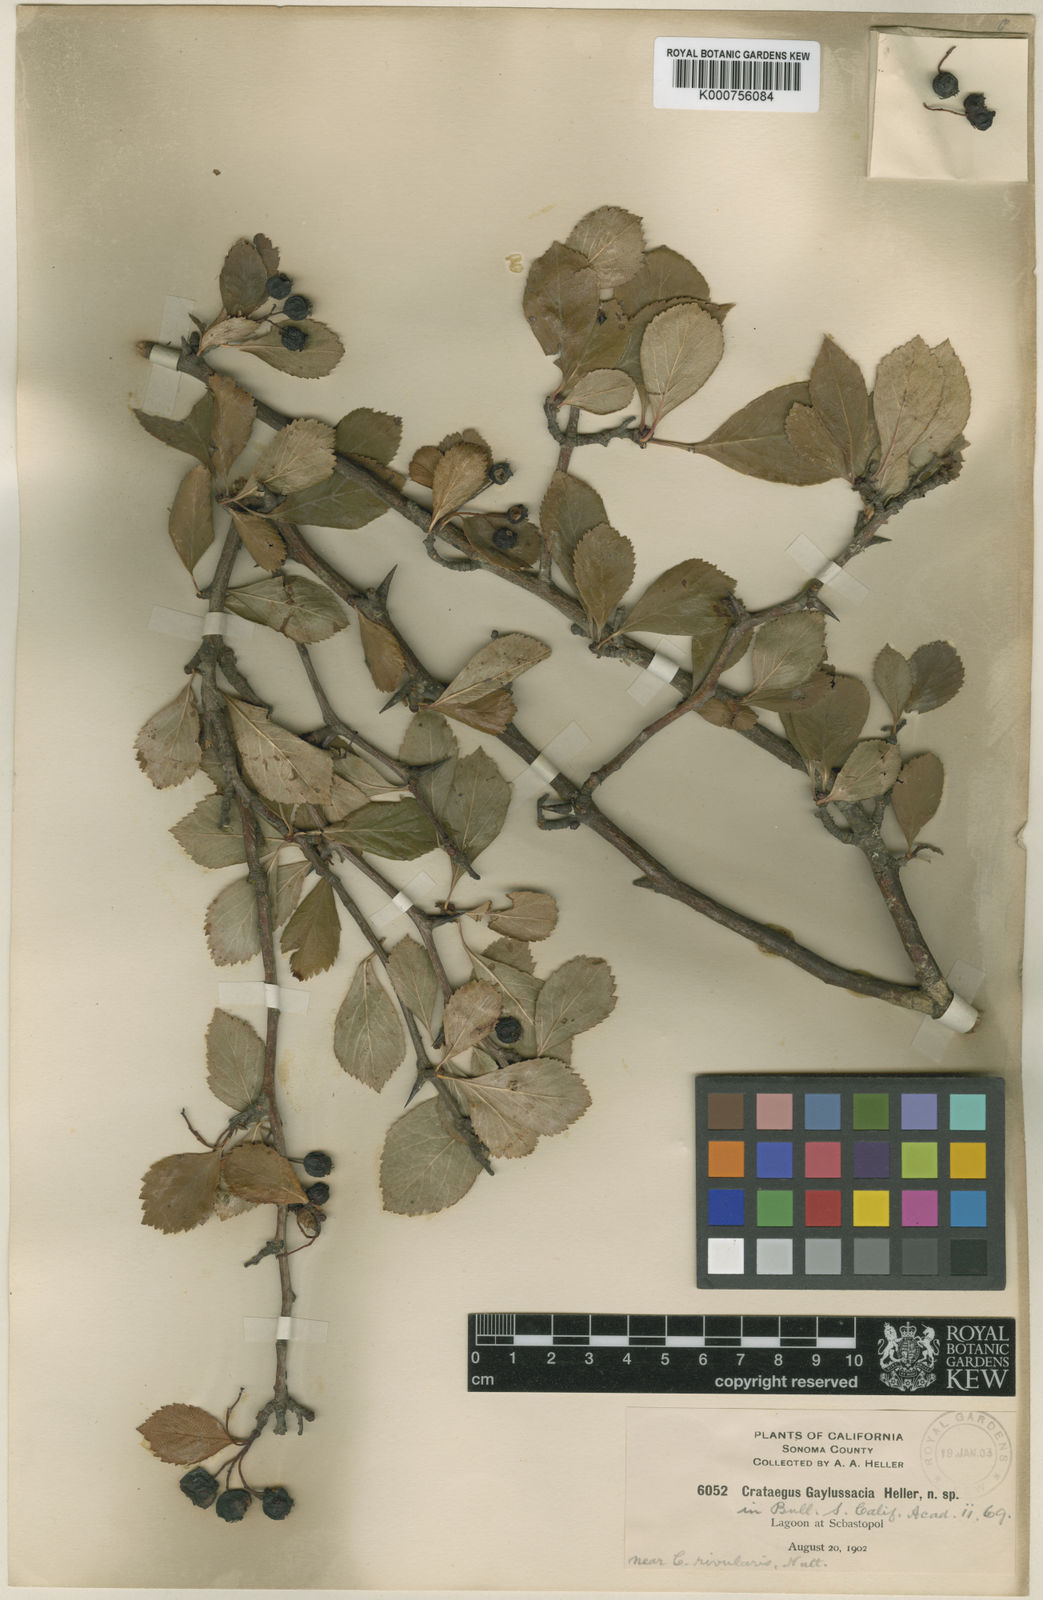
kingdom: Plantae
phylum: Tracheophyta
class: Magnoliopsida
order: Rosales
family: Rosaceae
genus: Crataegus
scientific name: Crataegus gaylussacia
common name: Huckleberry hawthorn
